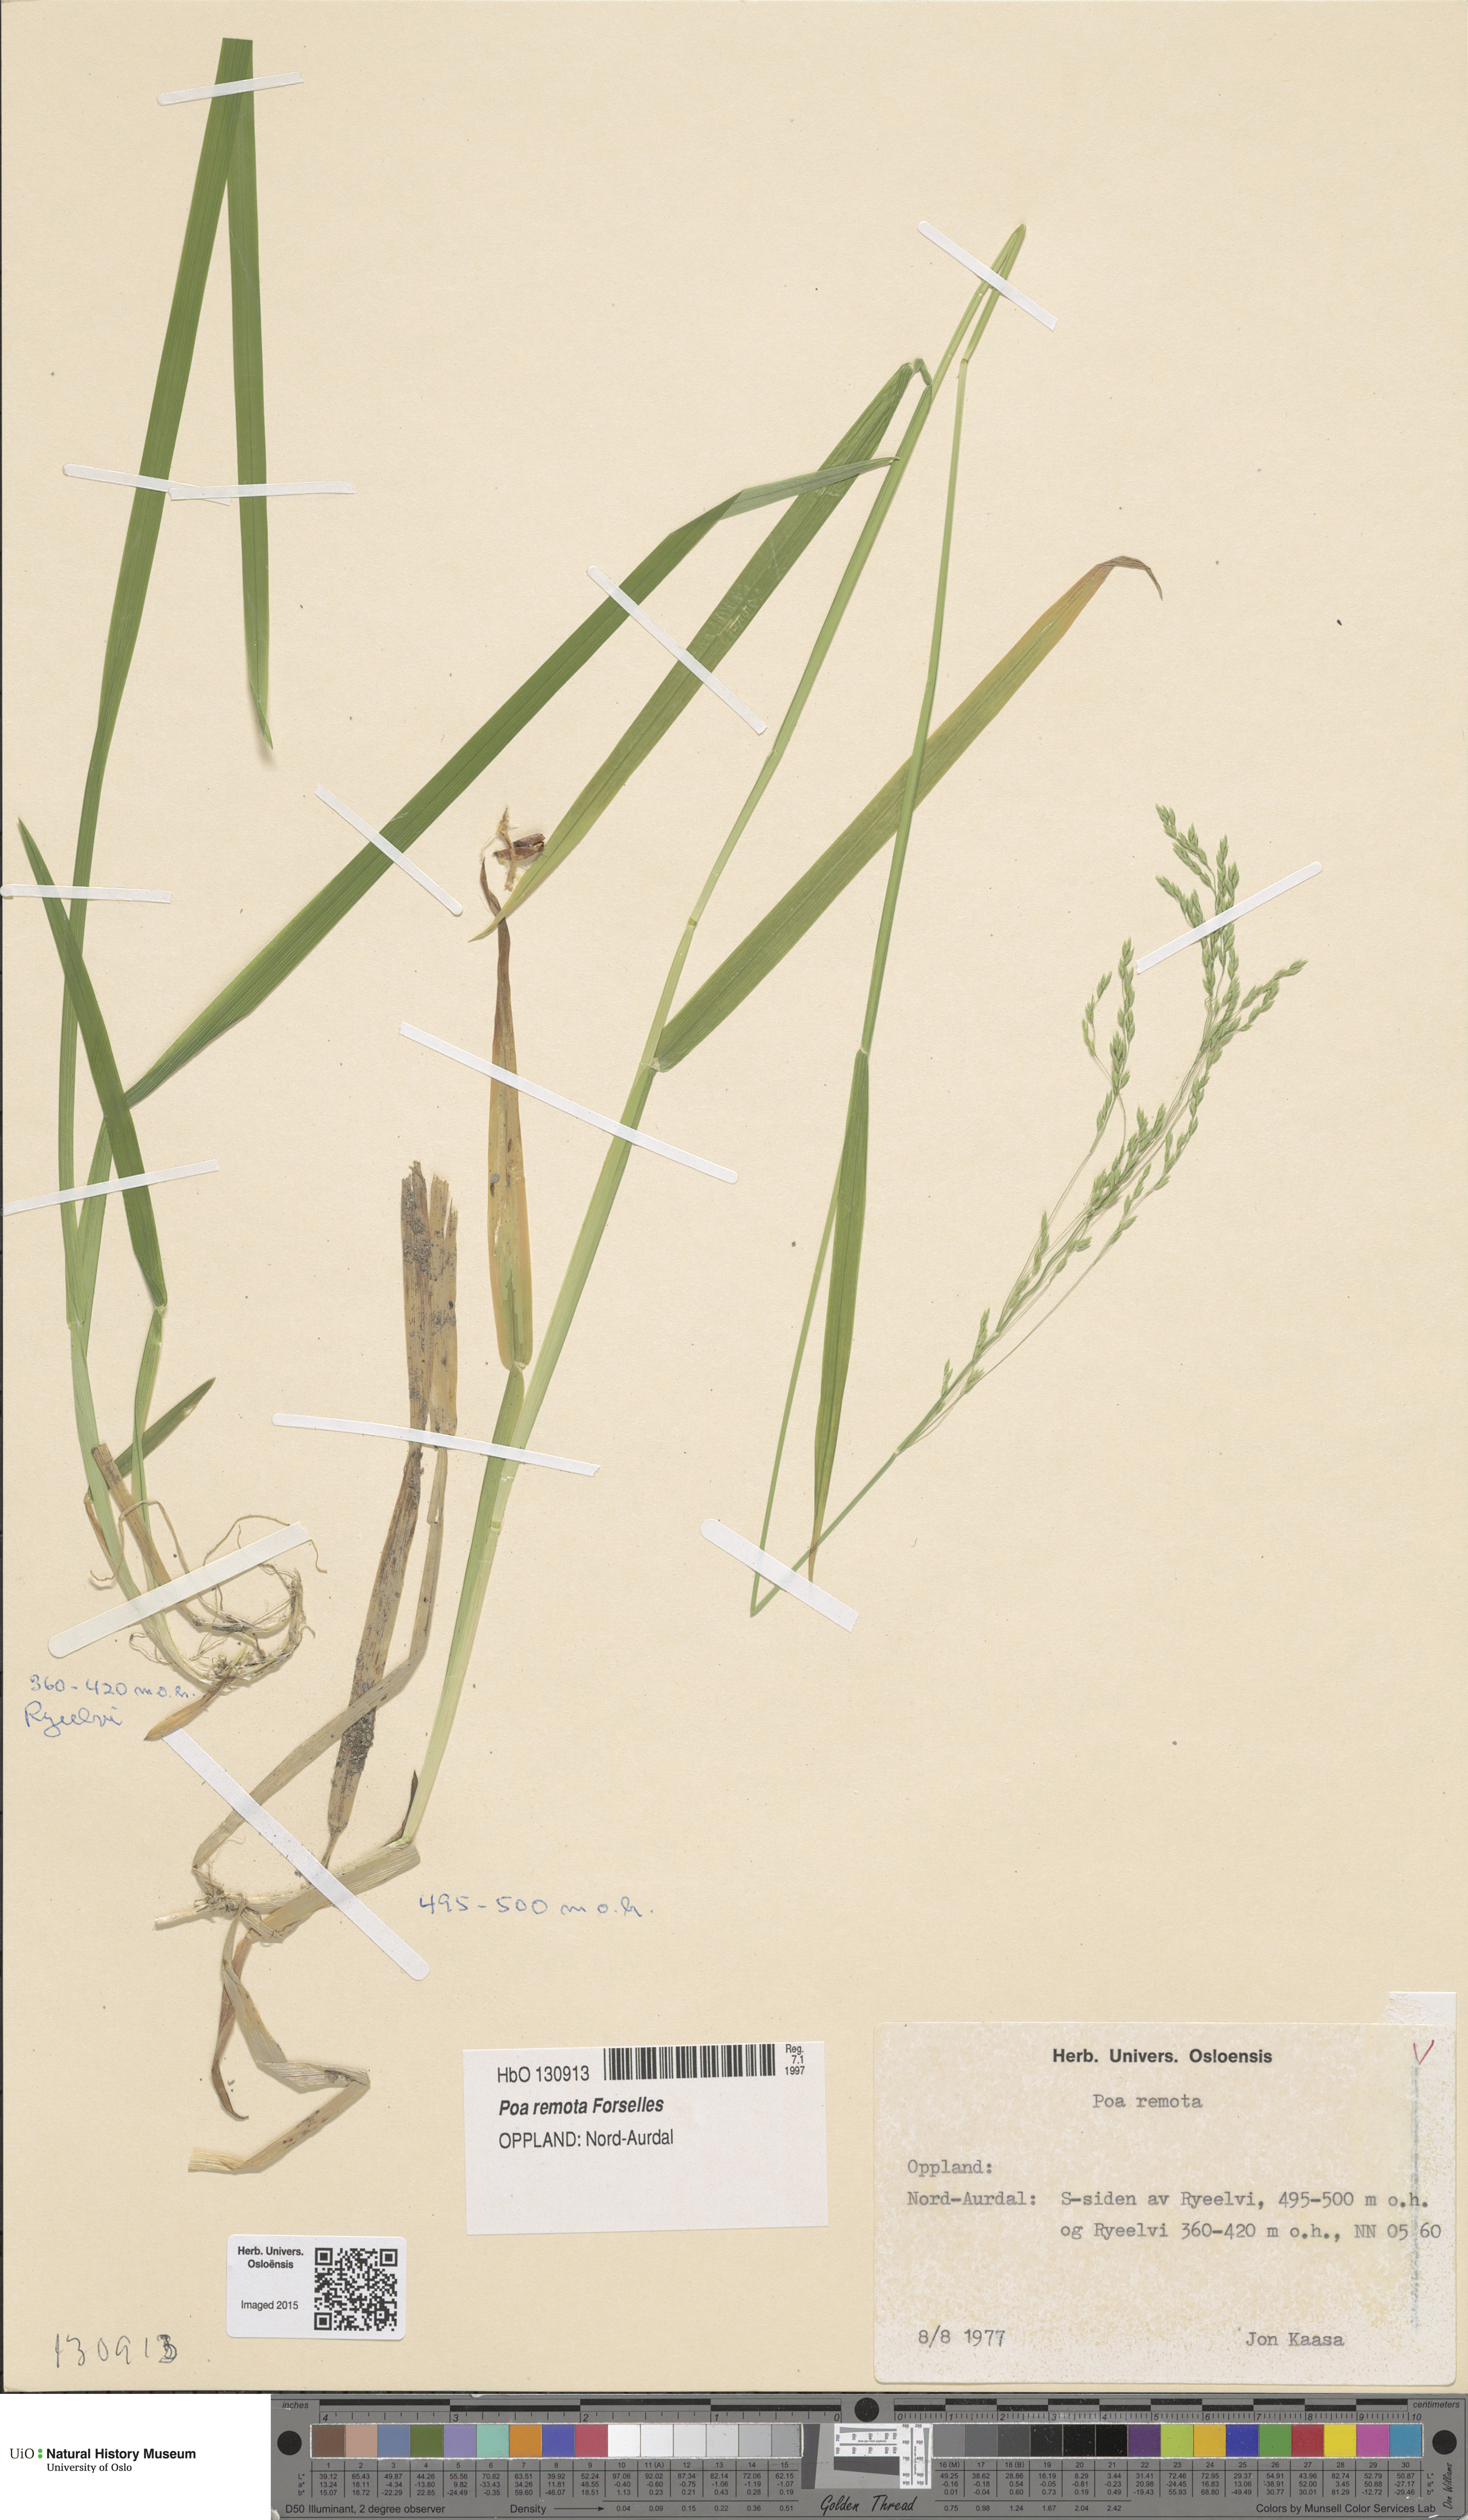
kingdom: Plantae
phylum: Tracheophyta
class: Liliopsida
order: Poales
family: Poaceae
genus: Poa
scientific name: Poa remota
